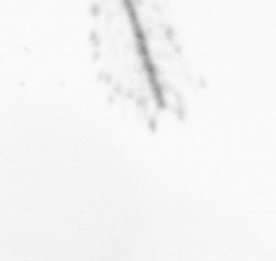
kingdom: Chromista
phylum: Ochrophyta
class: Bacillariophyceae
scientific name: Bacillariophyceae
